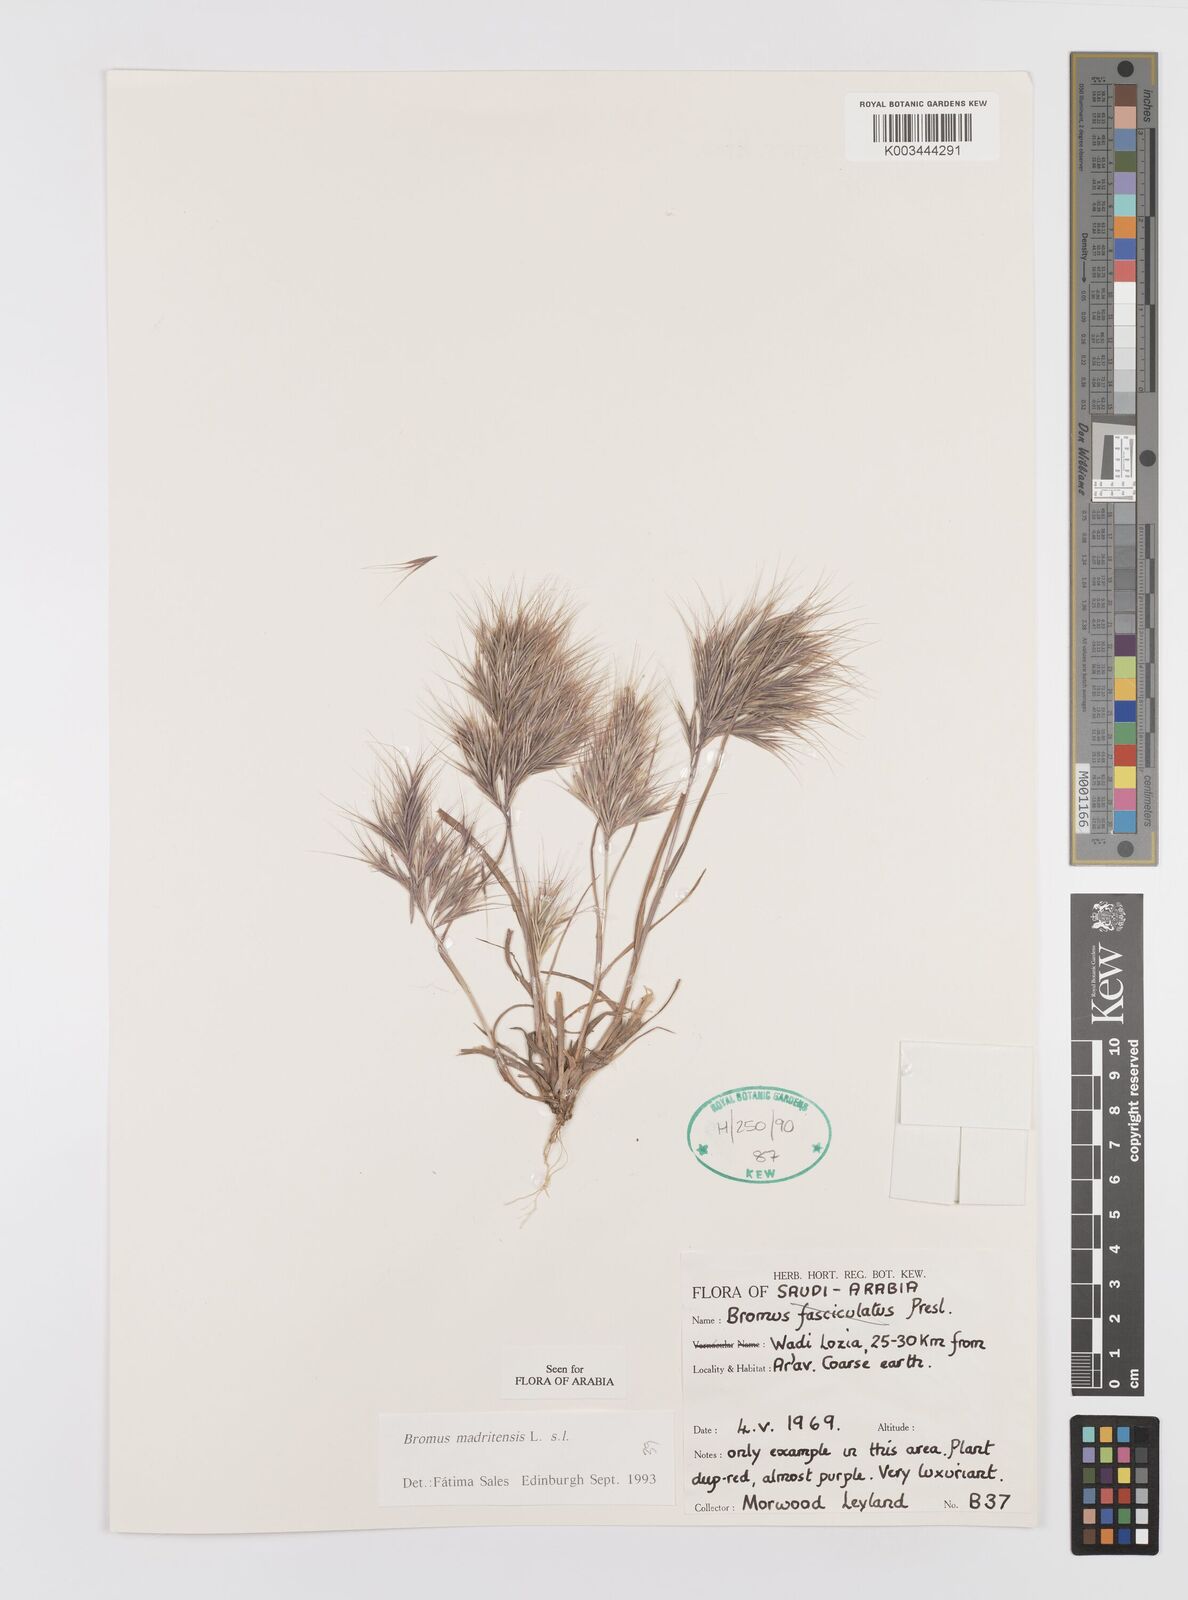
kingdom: Plantae
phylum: Tracheophyta
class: Liliopsida
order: Poales
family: Poaceae
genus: Bromus
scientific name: Bromus madritensis
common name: Compact brome
